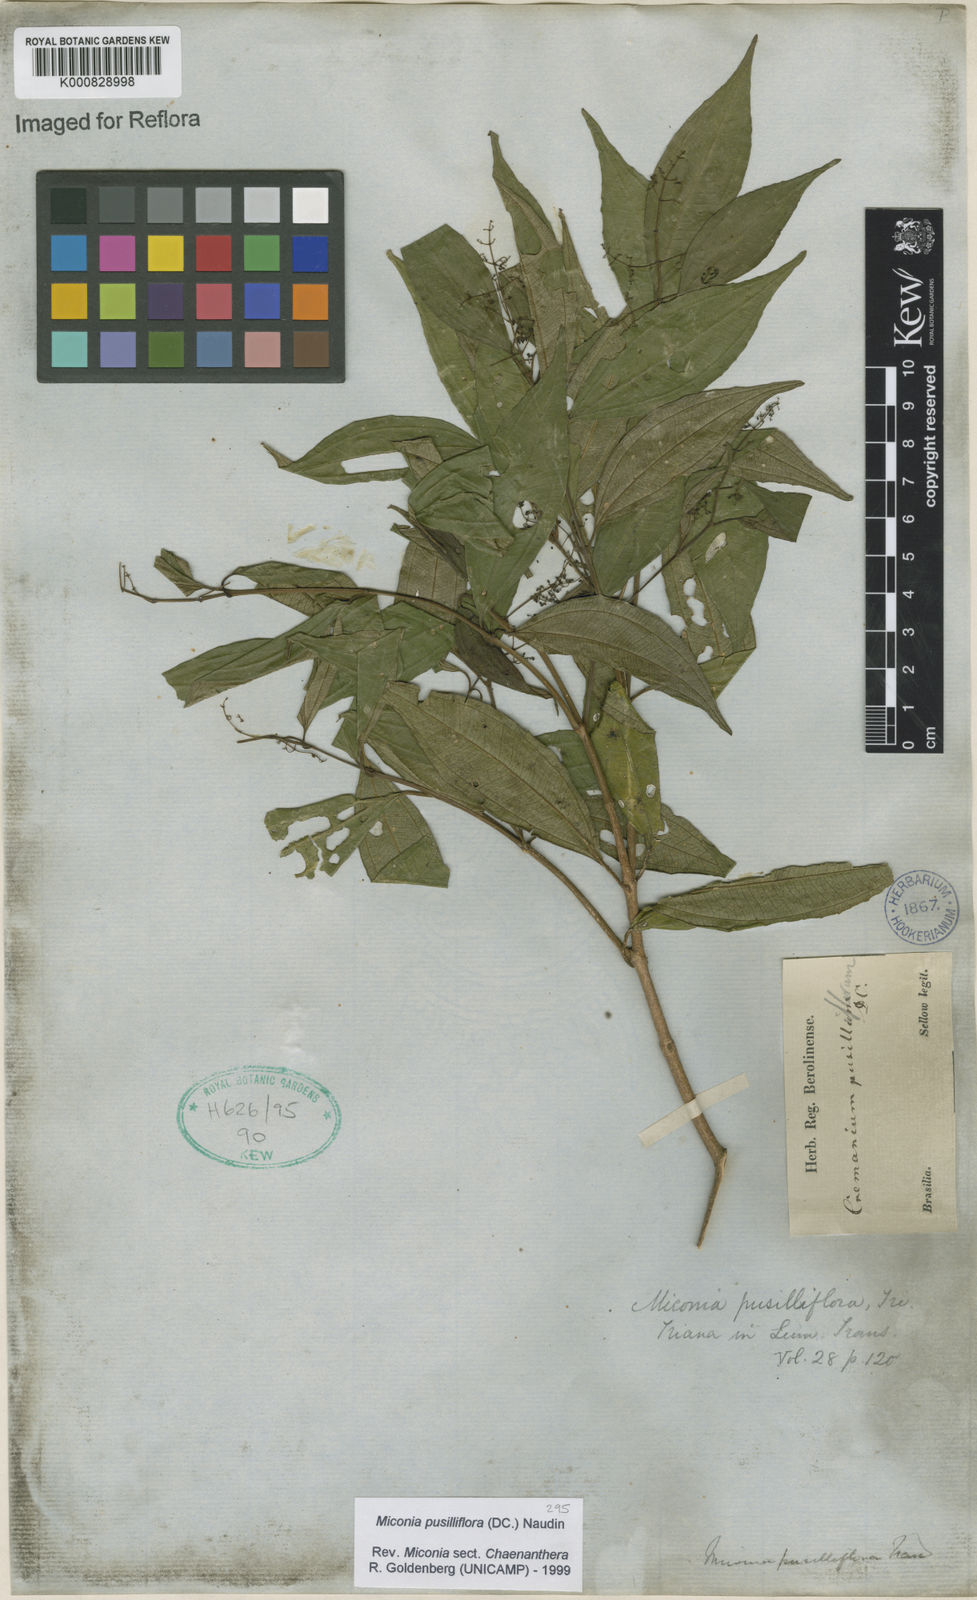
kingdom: Plantae
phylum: Tracheophyta
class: Magnoliopsida
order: Myrtales
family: Melastomataceae
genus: Miconia
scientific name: Miconia pusilliflora
